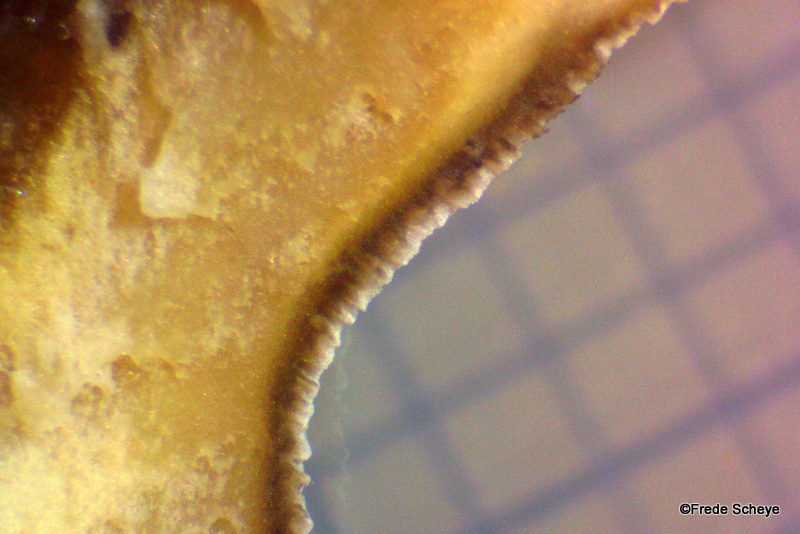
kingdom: Fungi
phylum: Basidiomycota
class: Agaricomycetes
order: Polyporales
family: Phanerochaetaceae
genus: Bjerkandera
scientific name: Bjerkandera adusta
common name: sveden sodporesvamp
